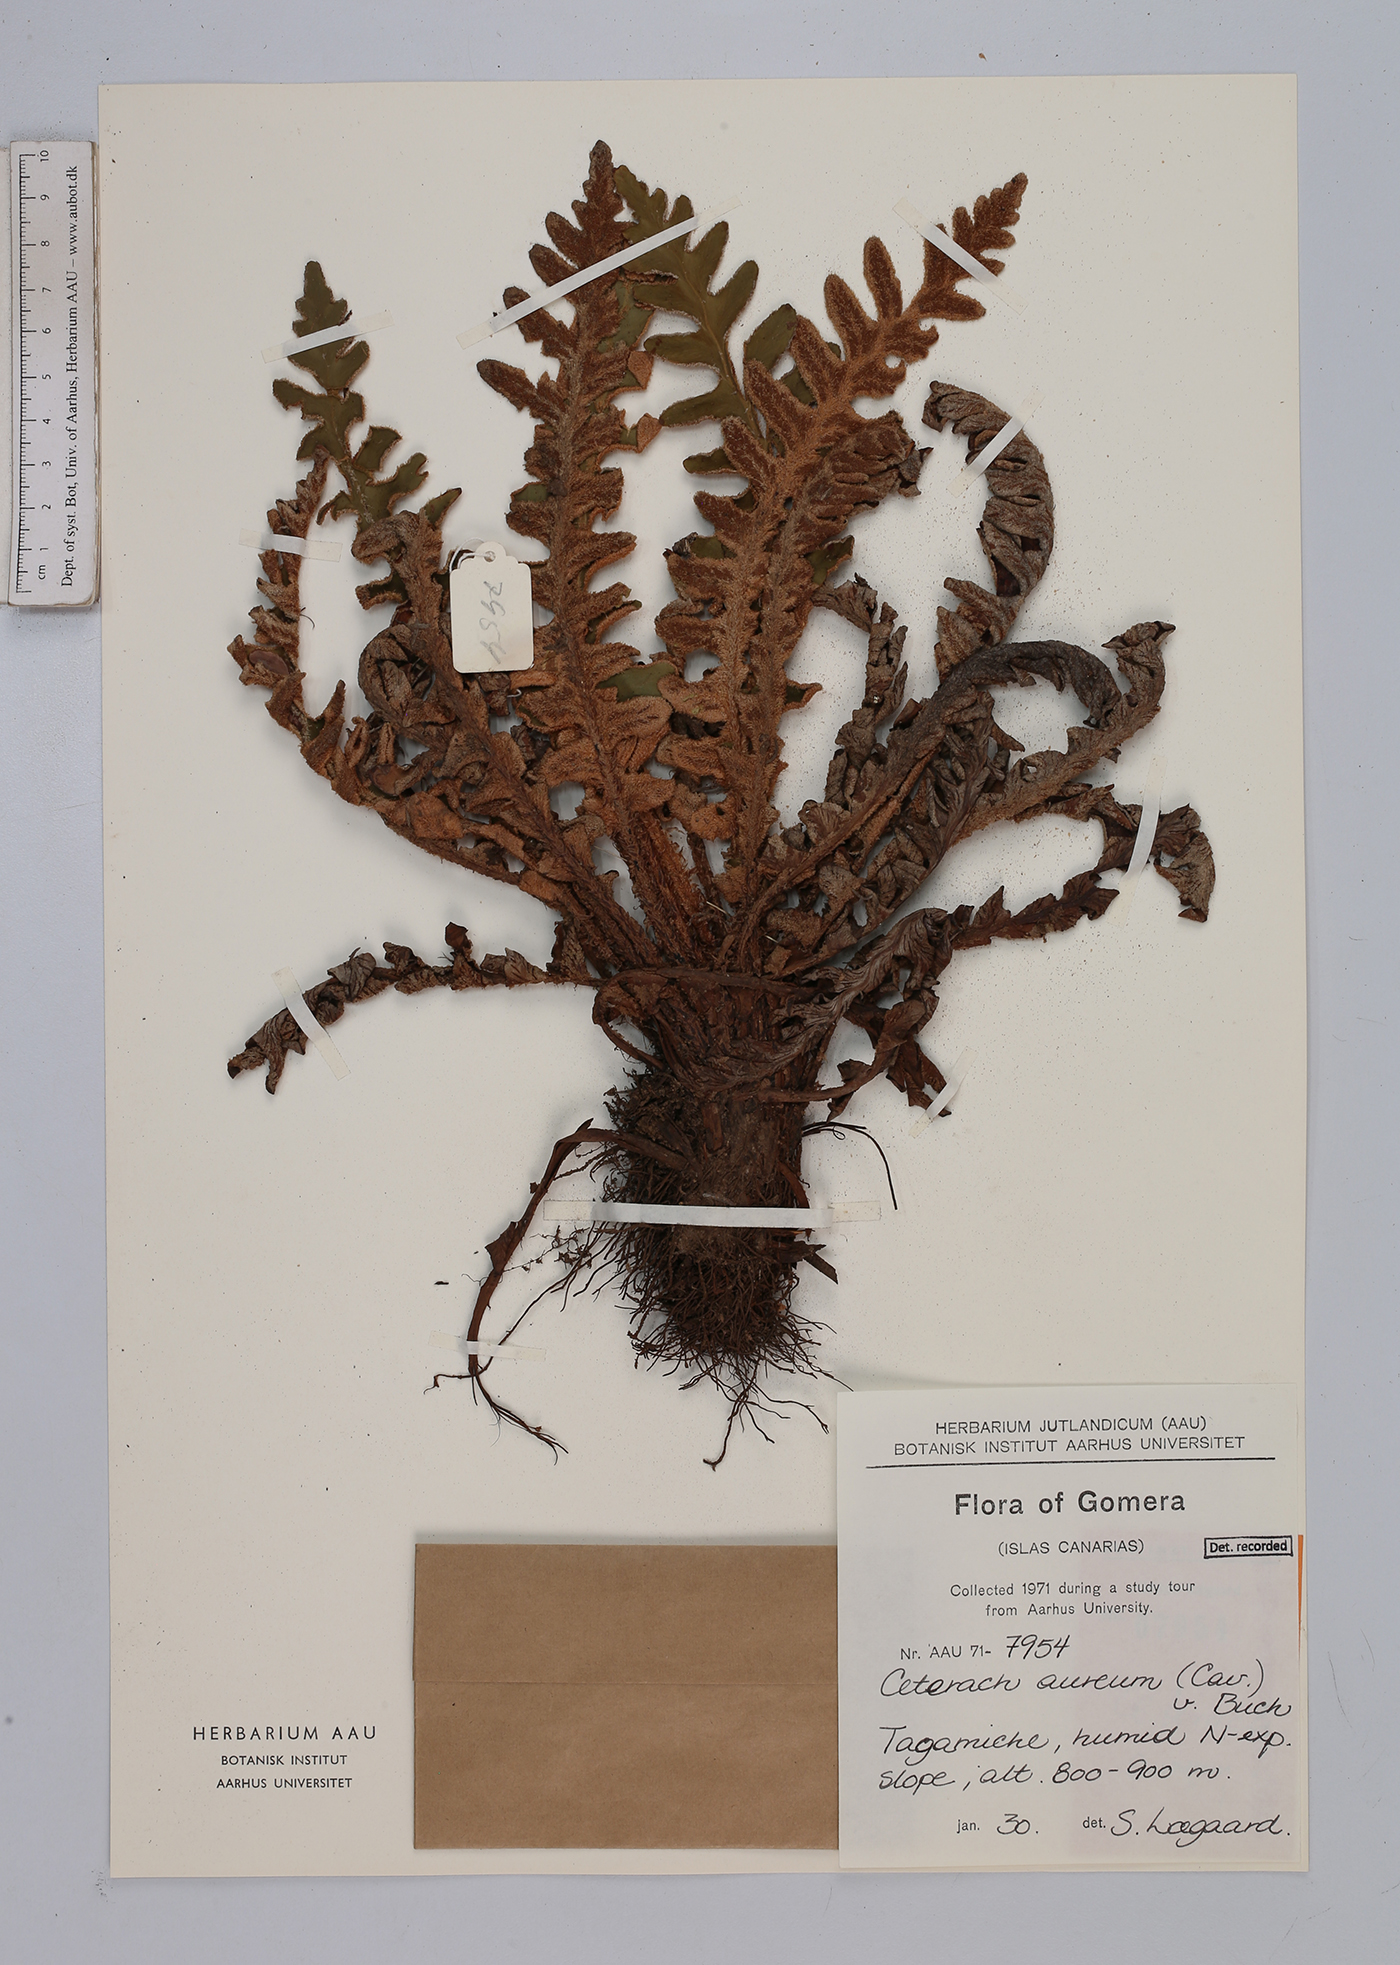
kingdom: Plantae
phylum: Tracheophyta
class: Polypodiopsida
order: Polypodiales
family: Aspleniaceae
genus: Asplenium
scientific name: Asplenium aureum
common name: Golden rustyback fern
